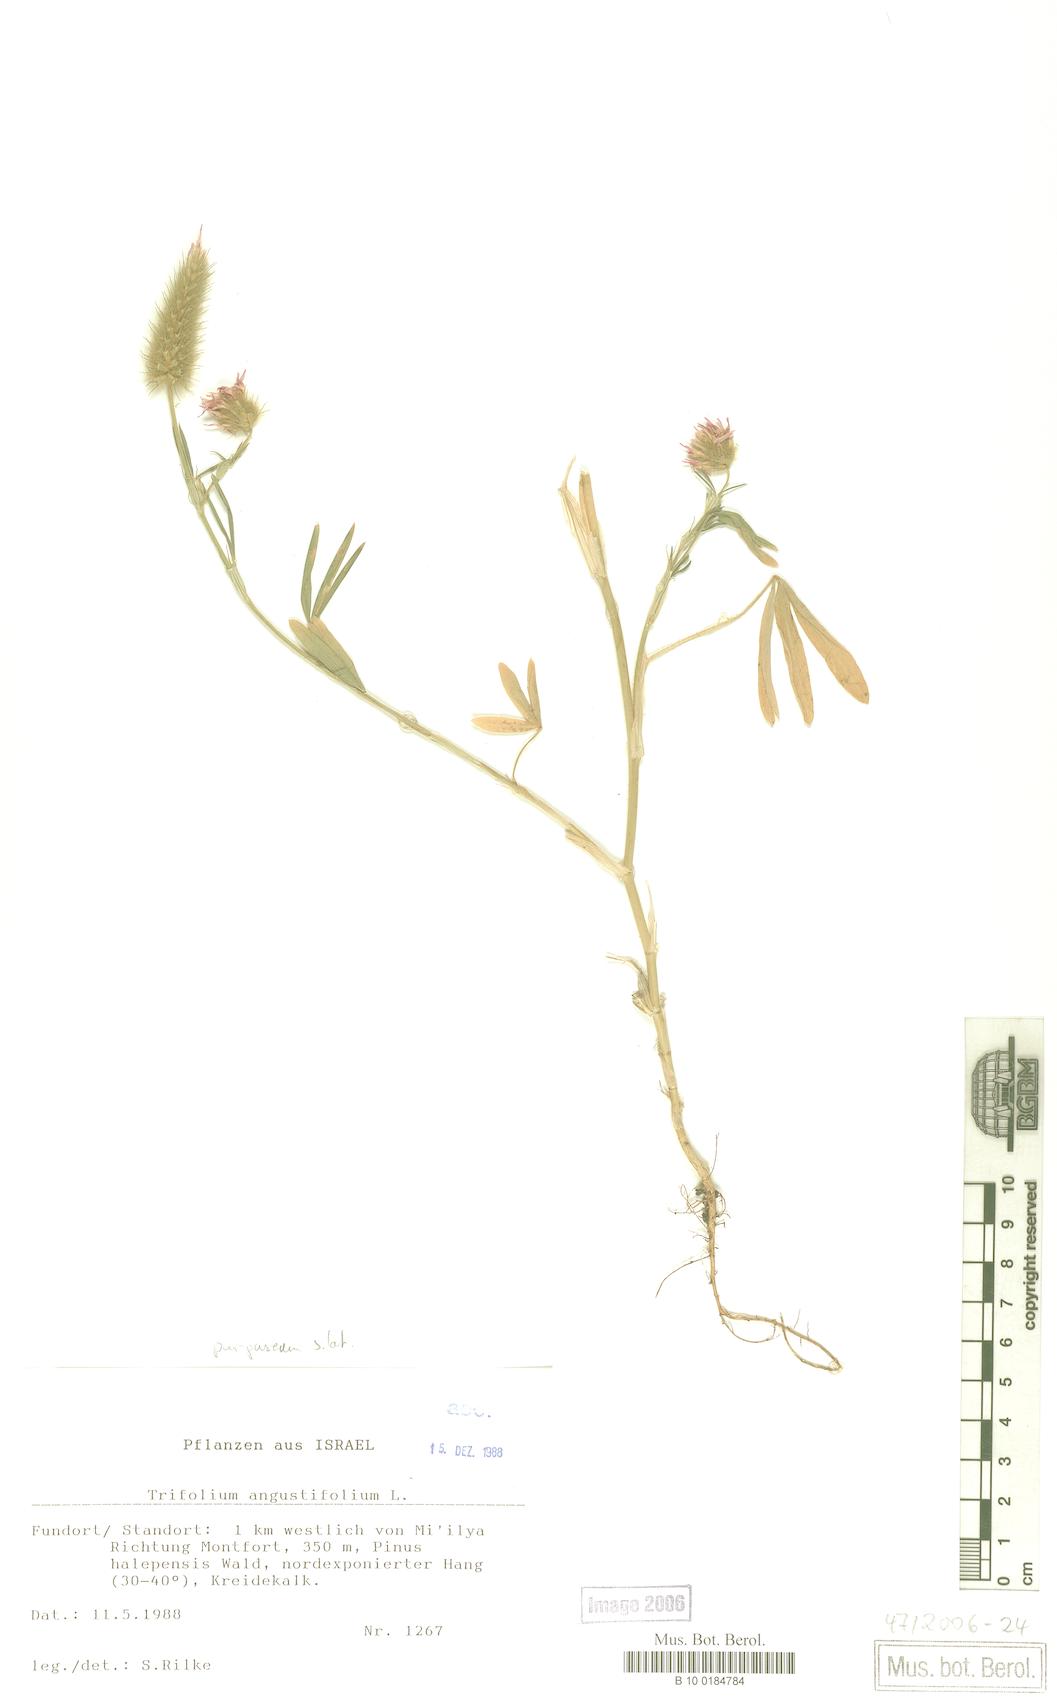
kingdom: Plantae
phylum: Tracheophyta
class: Magnoliopsida
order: Fabales
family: Fabaceae
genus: Trifolium
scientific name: Trifolium angustifolium
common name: Narrow clover
